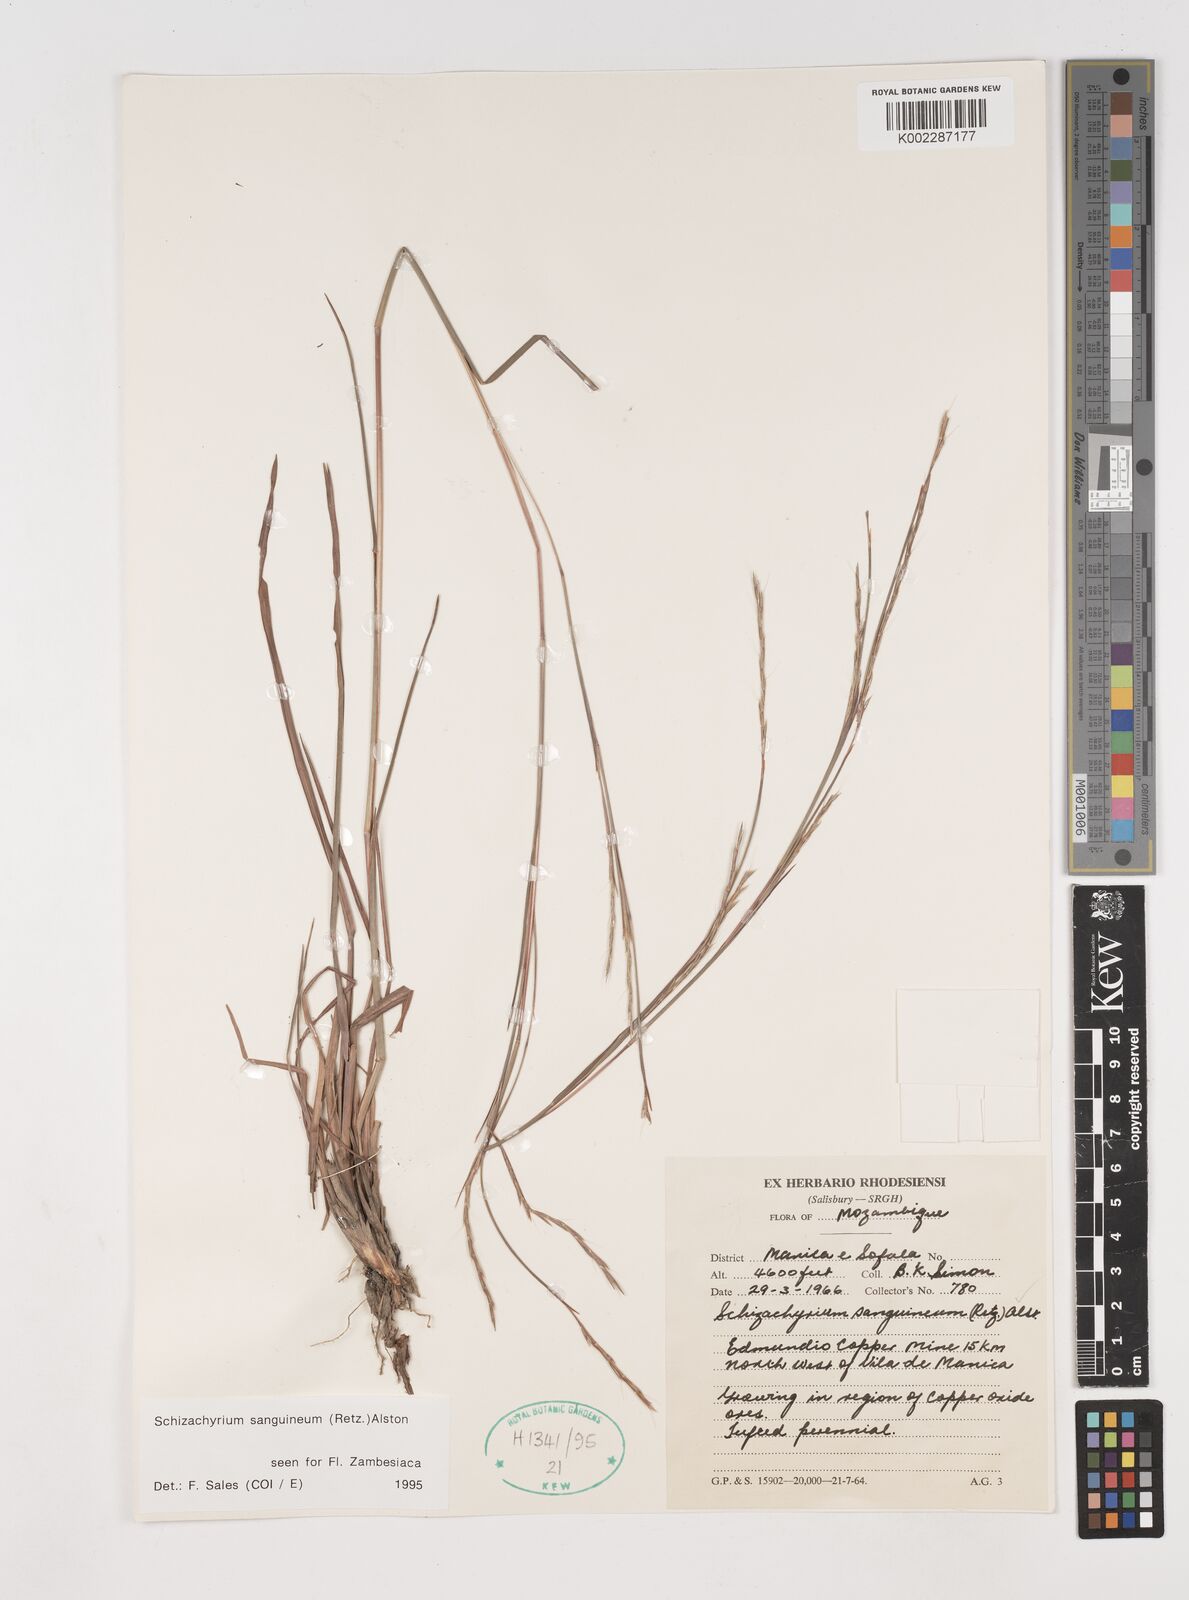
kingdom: Plantae
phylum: Tracheophyta
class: Liliopsida
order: Poales
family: Poaceae
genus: Schizachyrium
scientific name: Schizachyrium sanguineum
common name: Crimson bluestem
